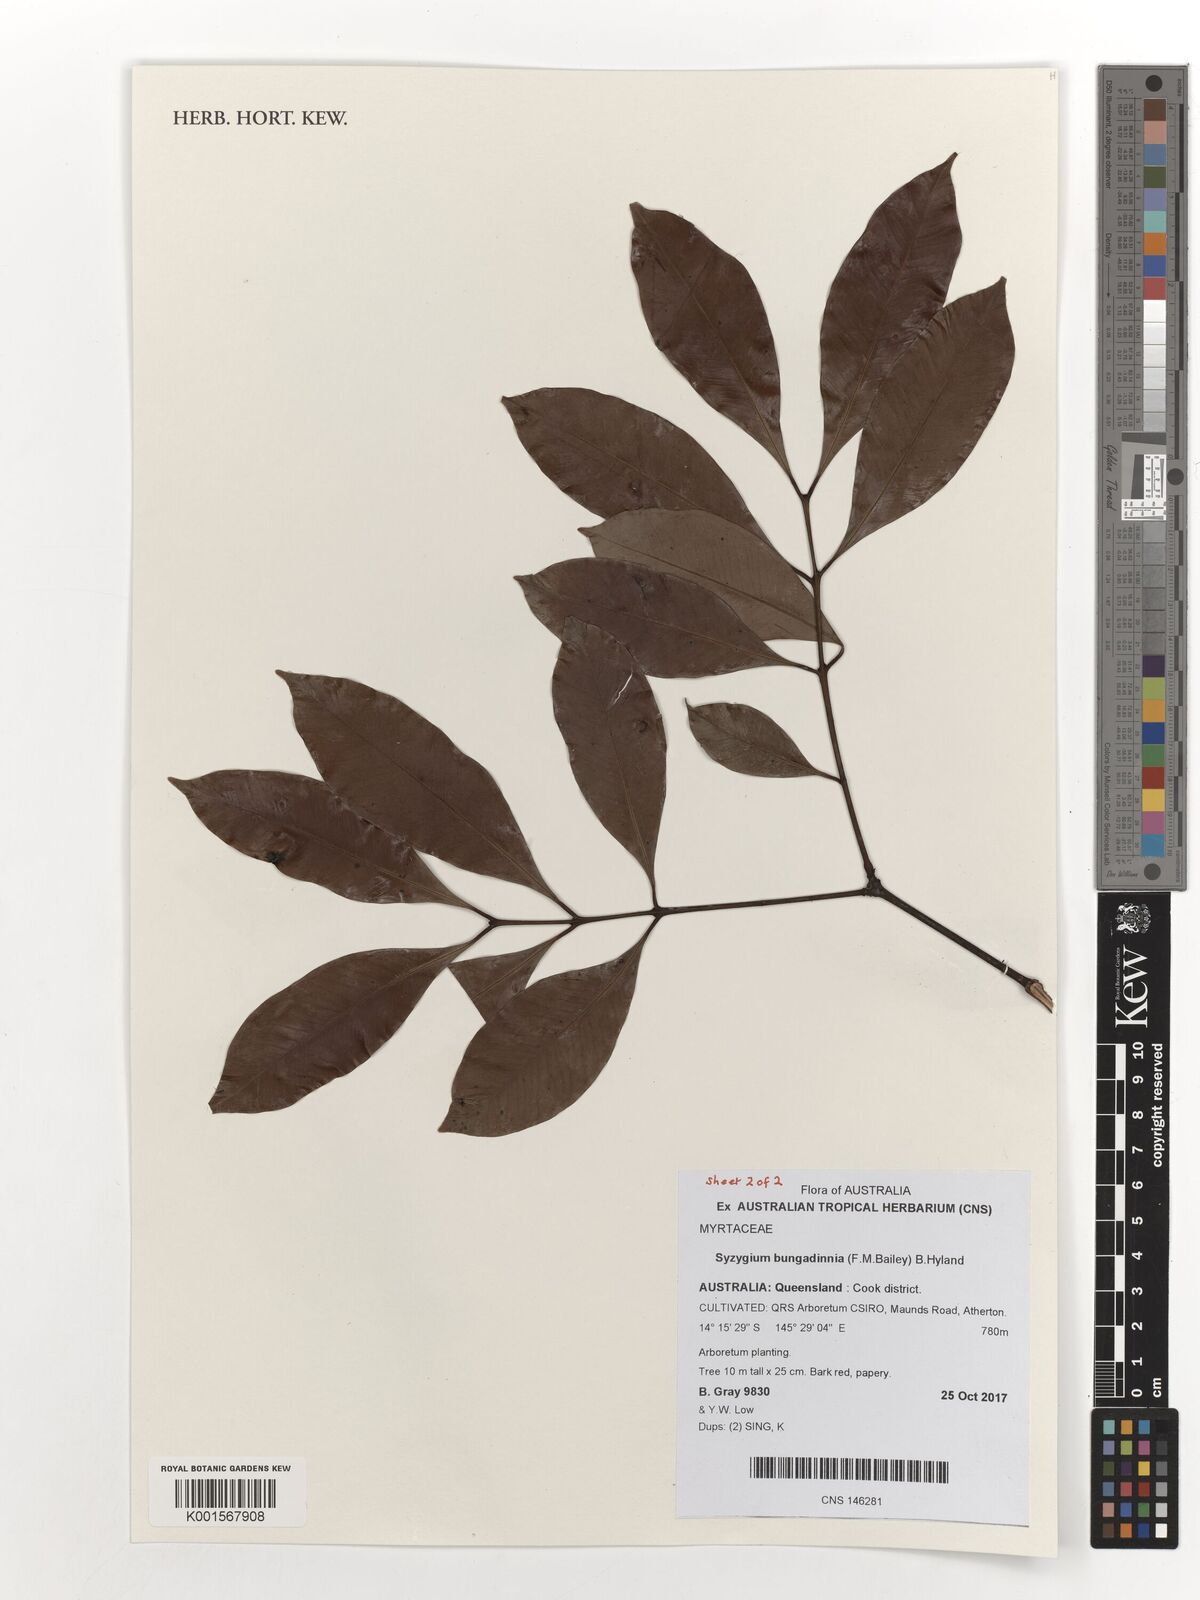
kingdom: Plantae
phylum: Tracheophyta
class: Magnoliopsida
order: Myrtales
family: Myrtaceae
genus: Syzygium
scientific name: Syzygium bungadinnia
